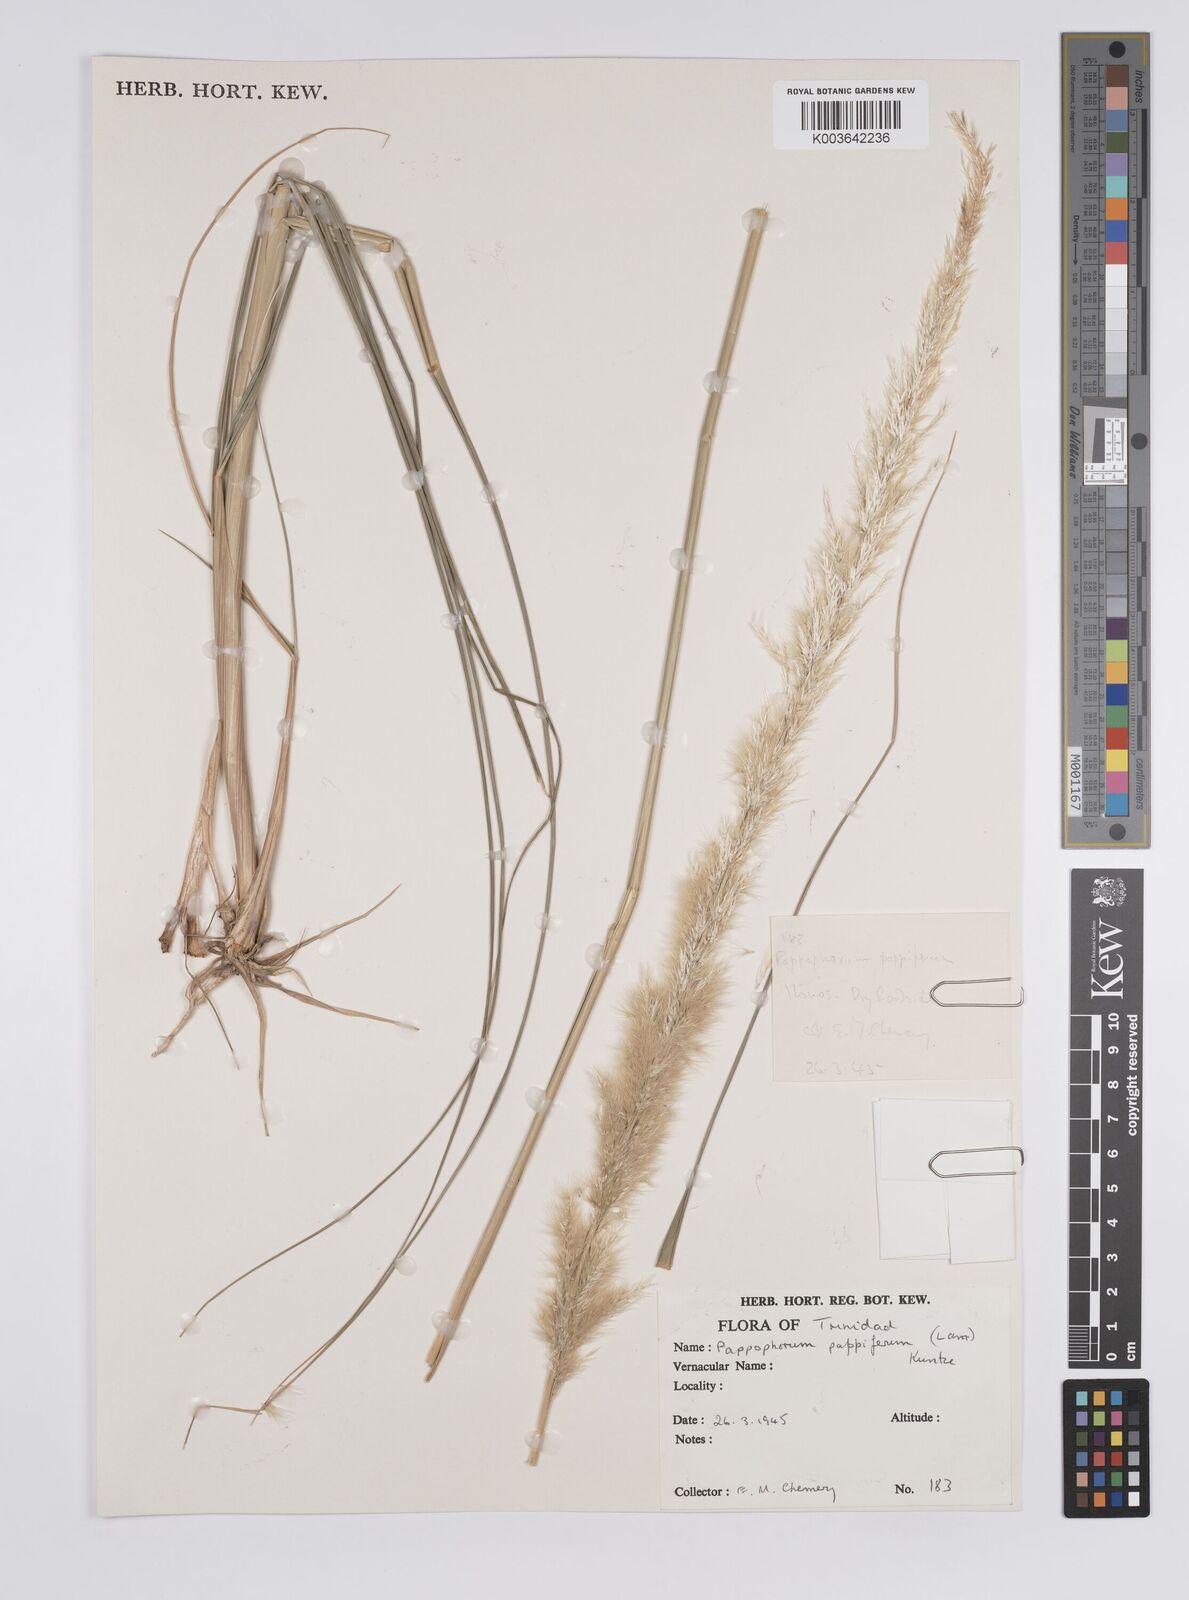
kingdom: Plantae
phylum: Tracheophyta
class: Liliopsida
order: Poales
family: Poaceae
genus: Pappophorum
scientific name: Pappophorum pappiferum
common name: Crabgrass
